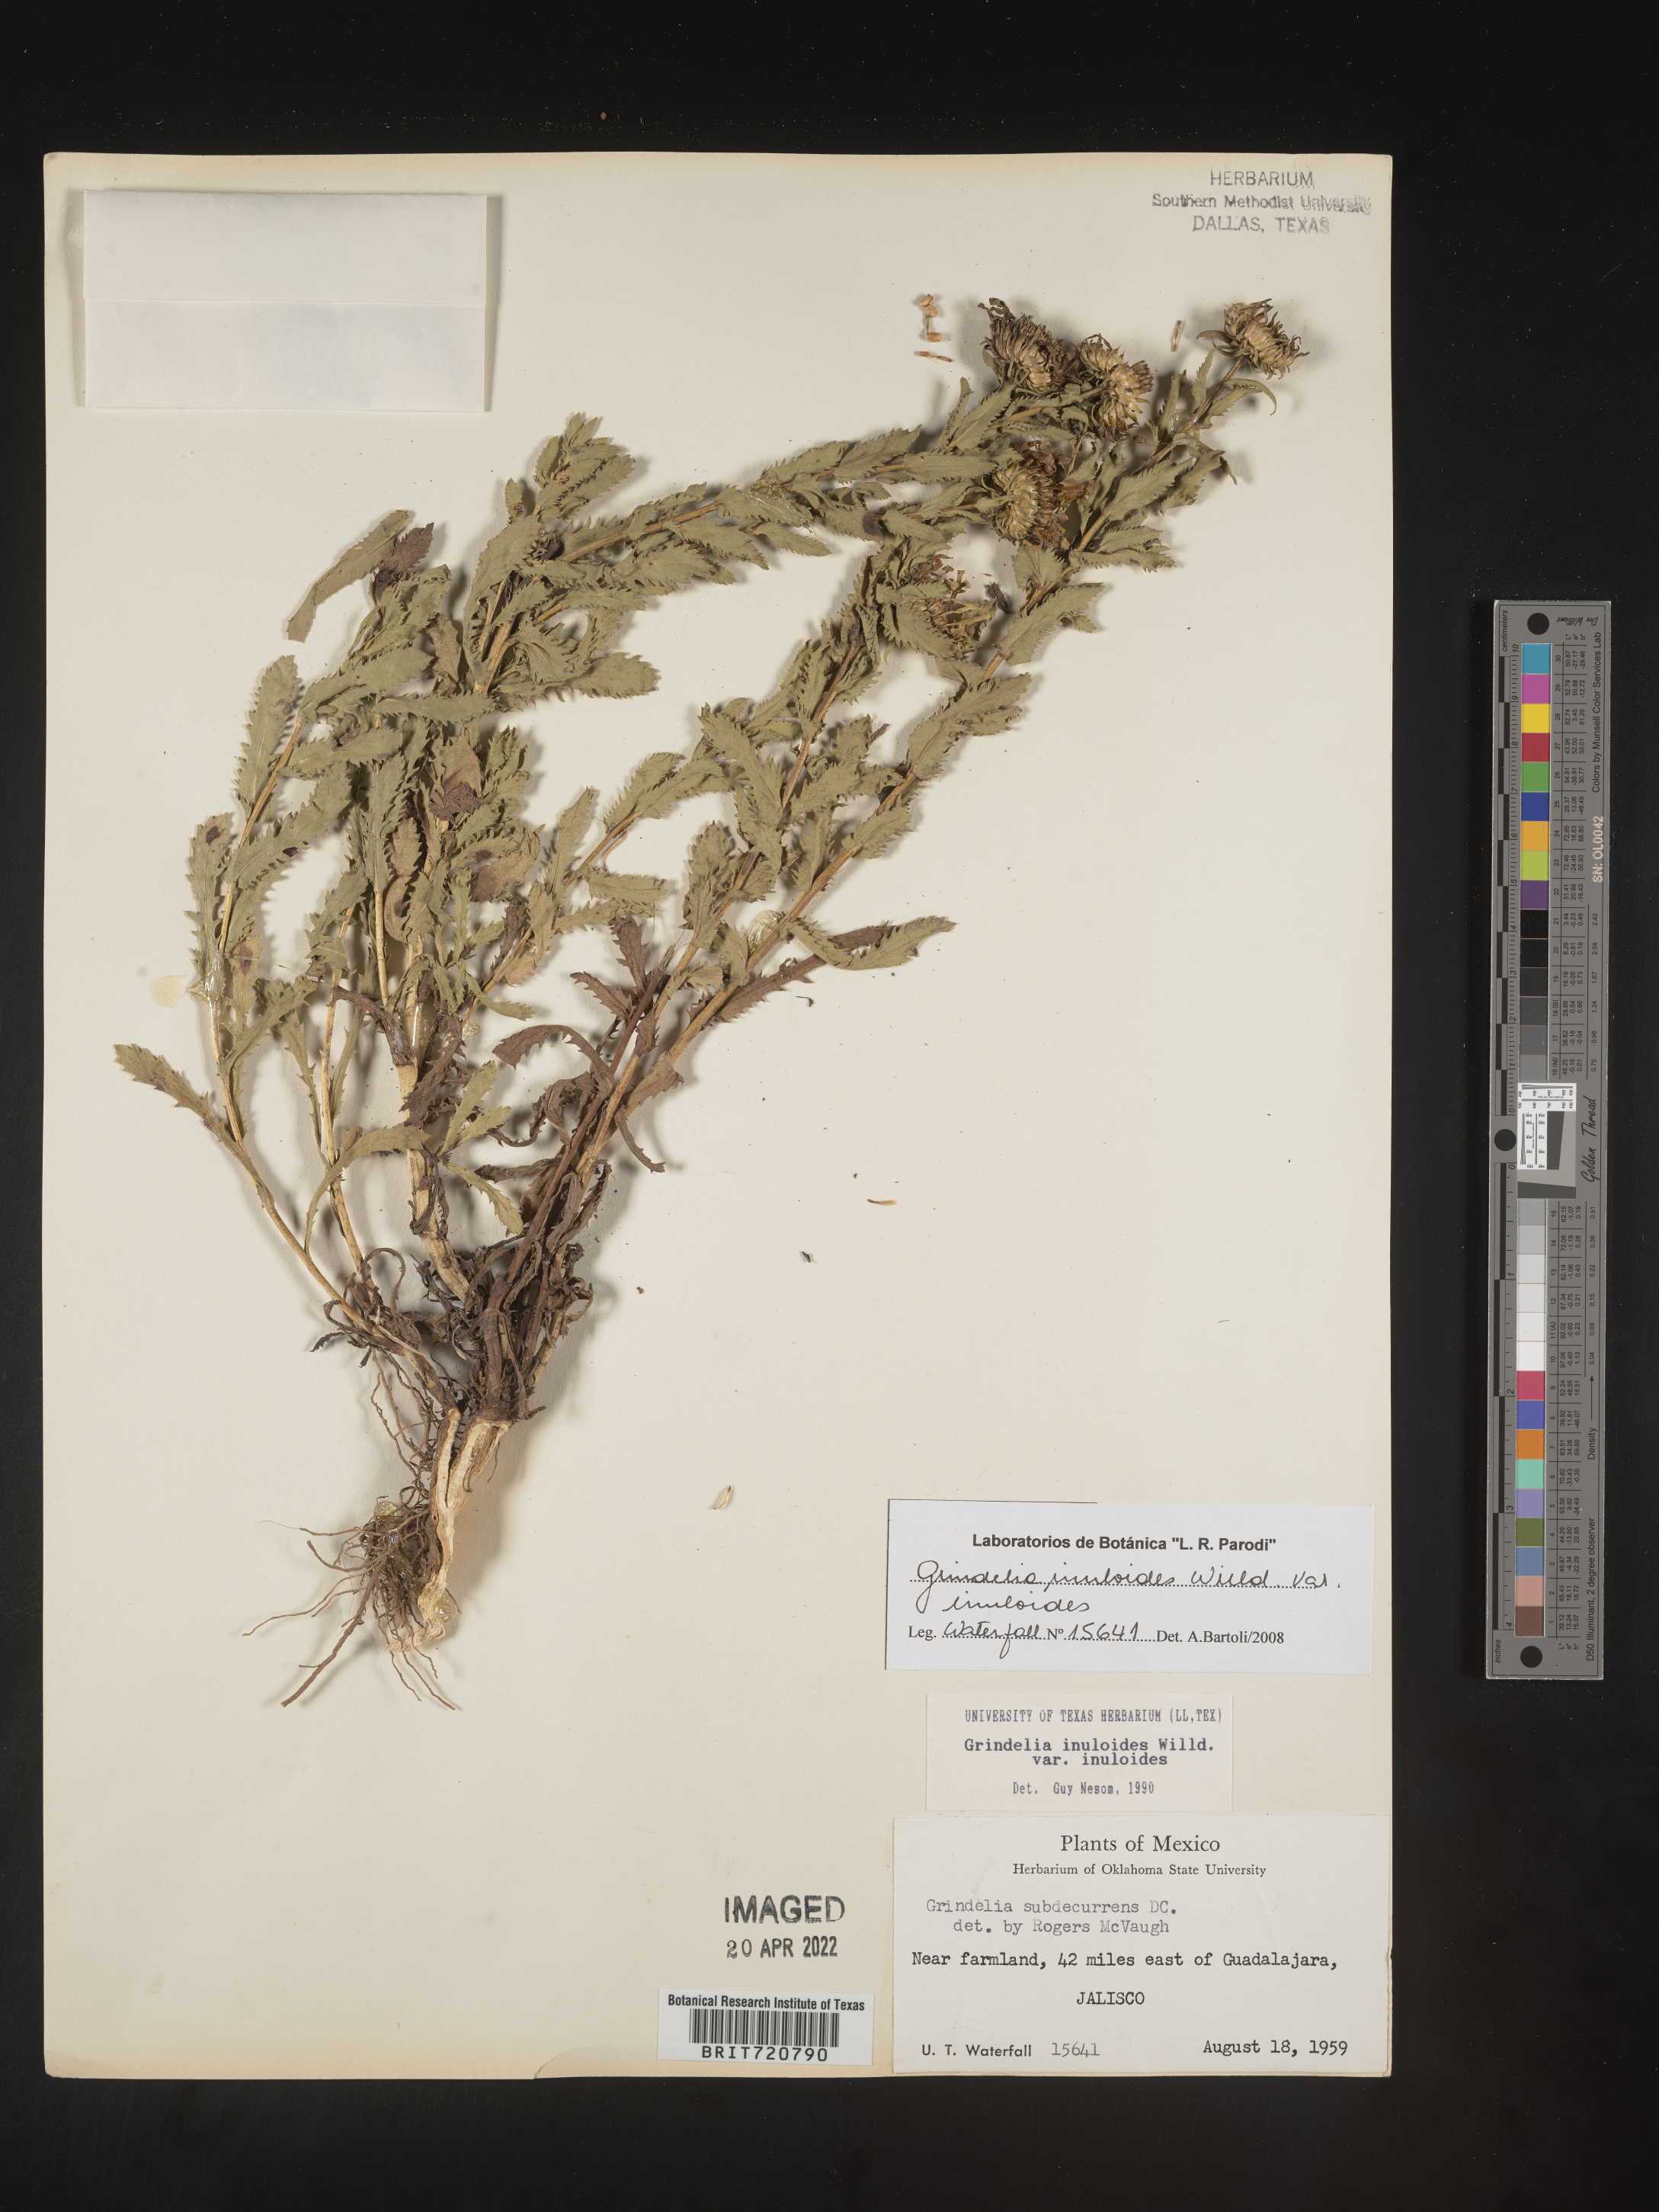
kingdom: Plantae
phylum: Tracheophyta
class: Magnoliopsida
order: Asterales
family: Asteraceae
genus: Grindelia
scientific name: Grindelia
